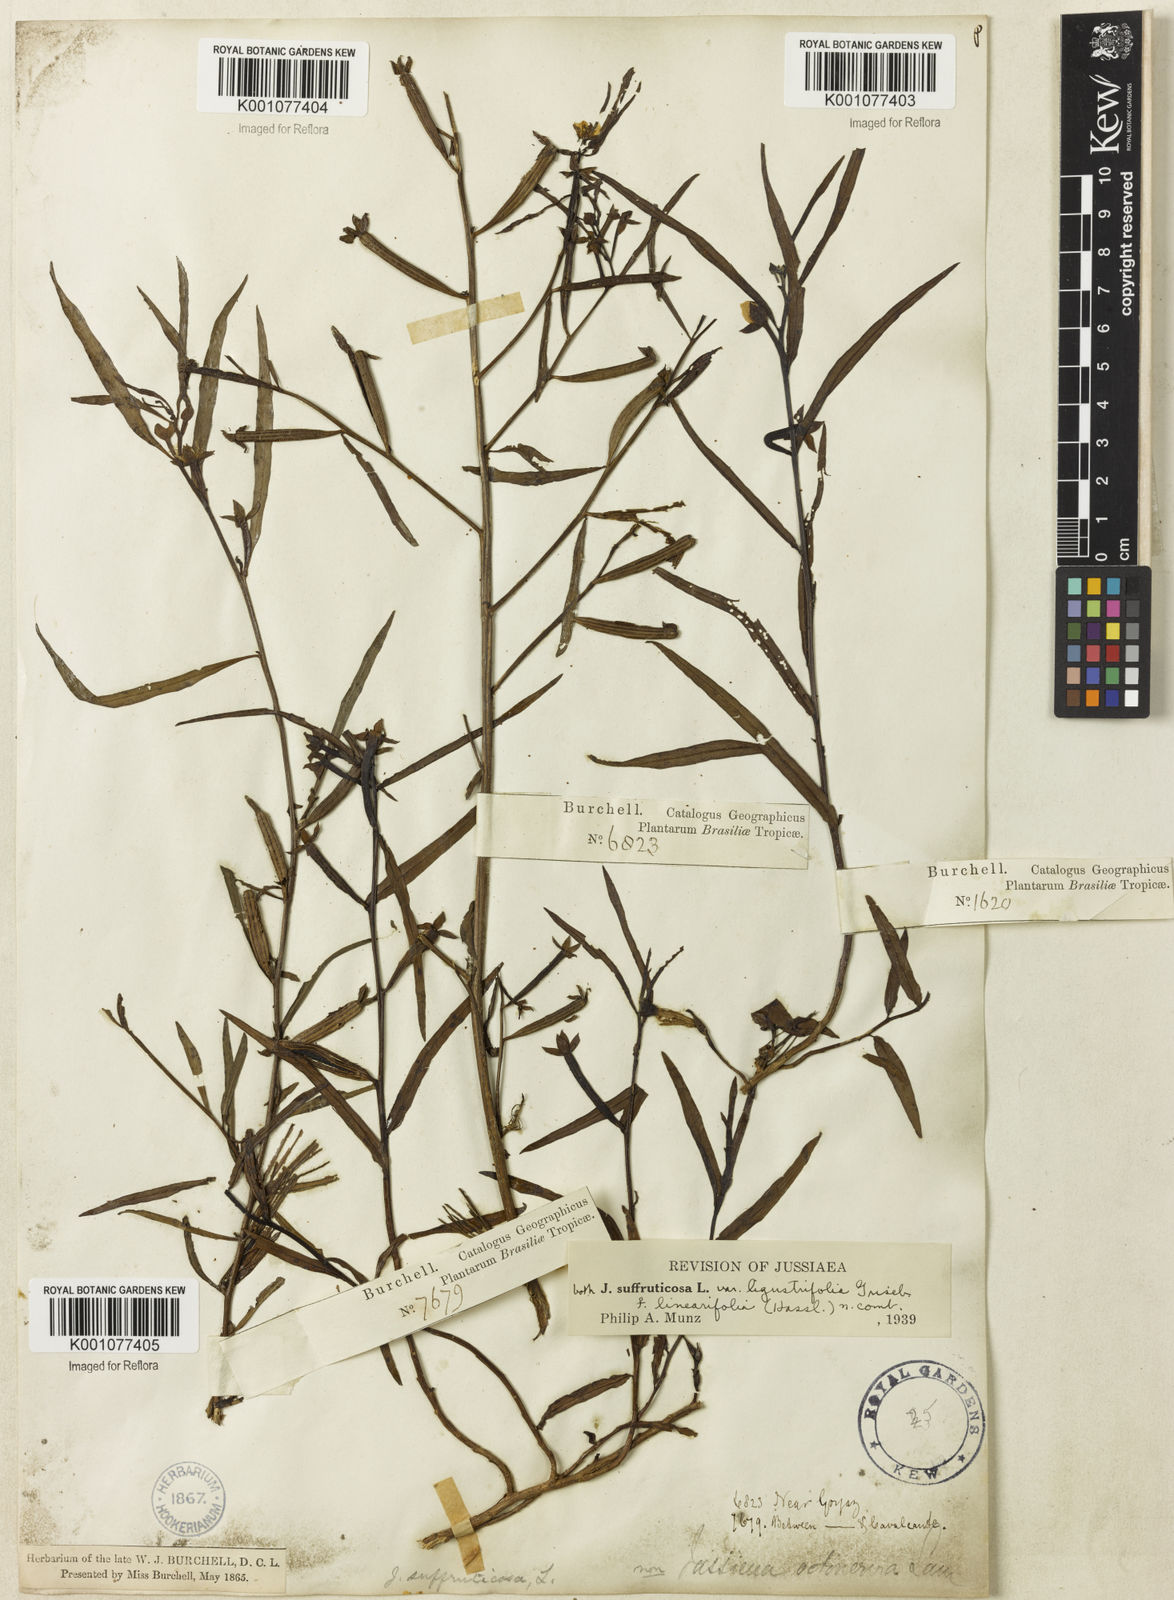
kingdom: Plantae
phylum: Tracheophyta
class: Magnoliopsida
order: Myrtales
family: Onagraceae
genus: Ludwigia
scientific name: Ludwigia octovalvis
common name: Water-primrose
